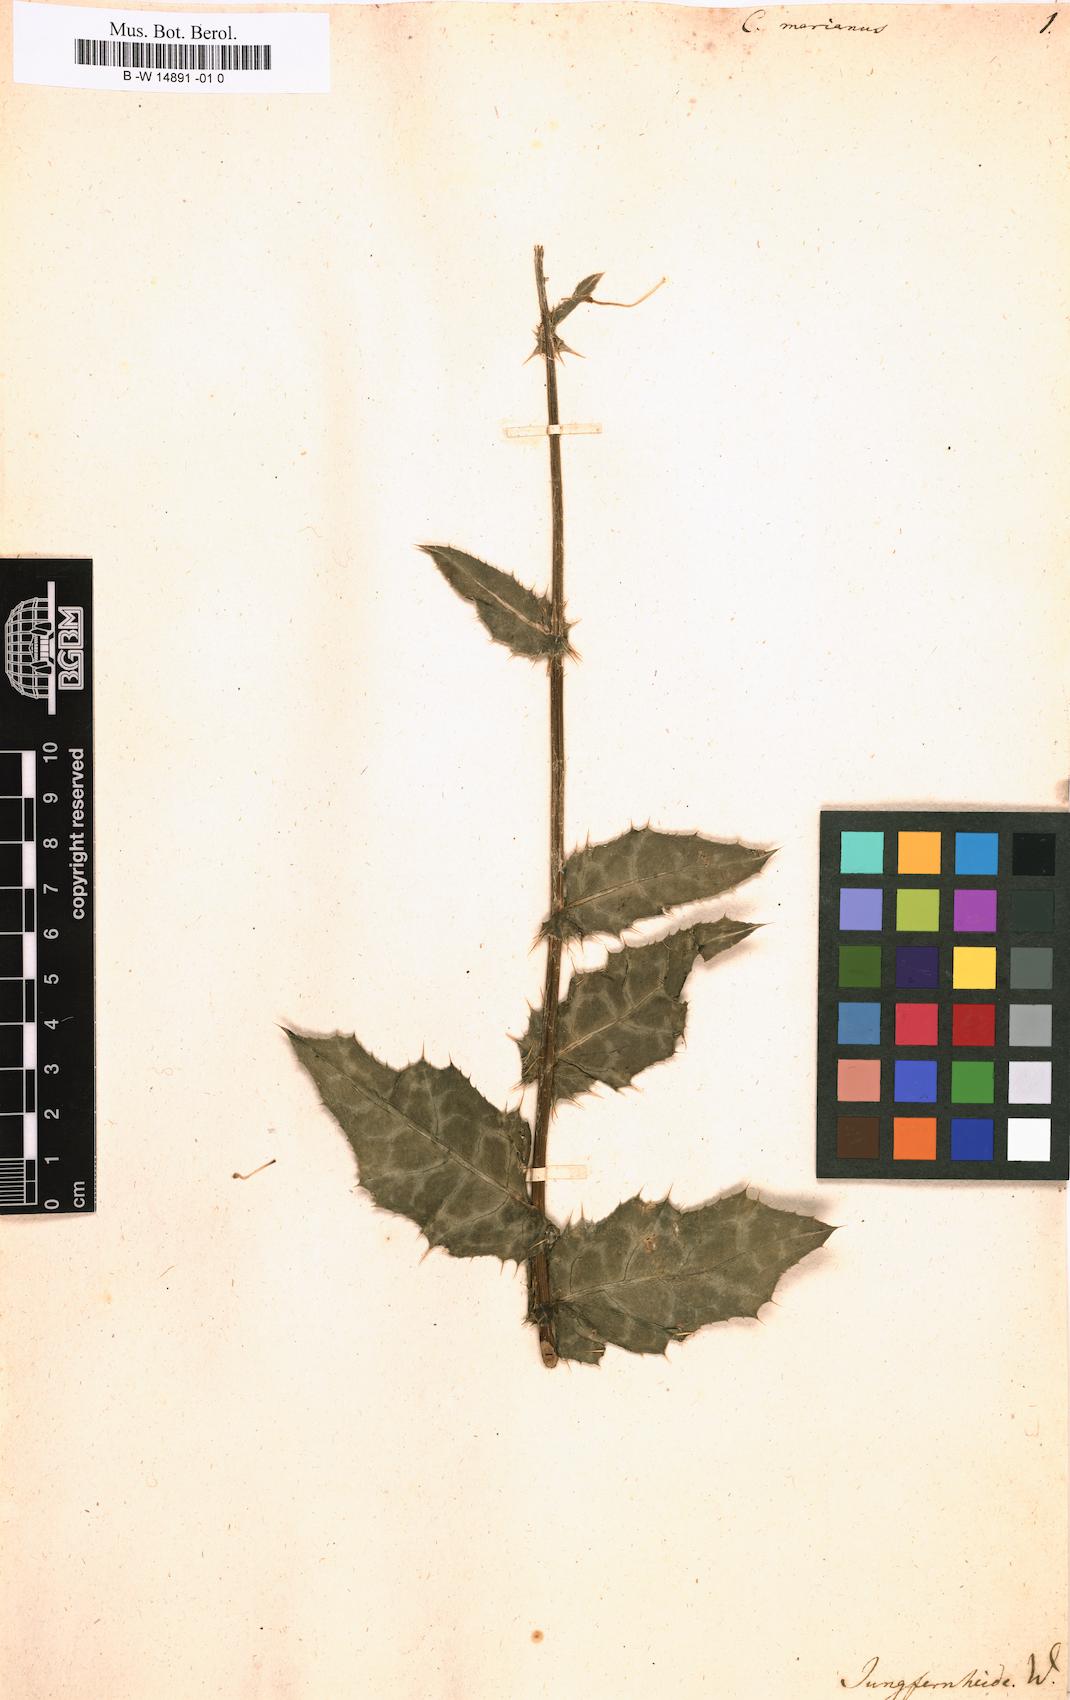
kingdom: Plantae
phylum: Tracheophyta
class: Magnoliopsida
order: Asterales
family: Asteraceae
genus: Silybum
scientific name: Silybum marianum
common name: Milk thistle
